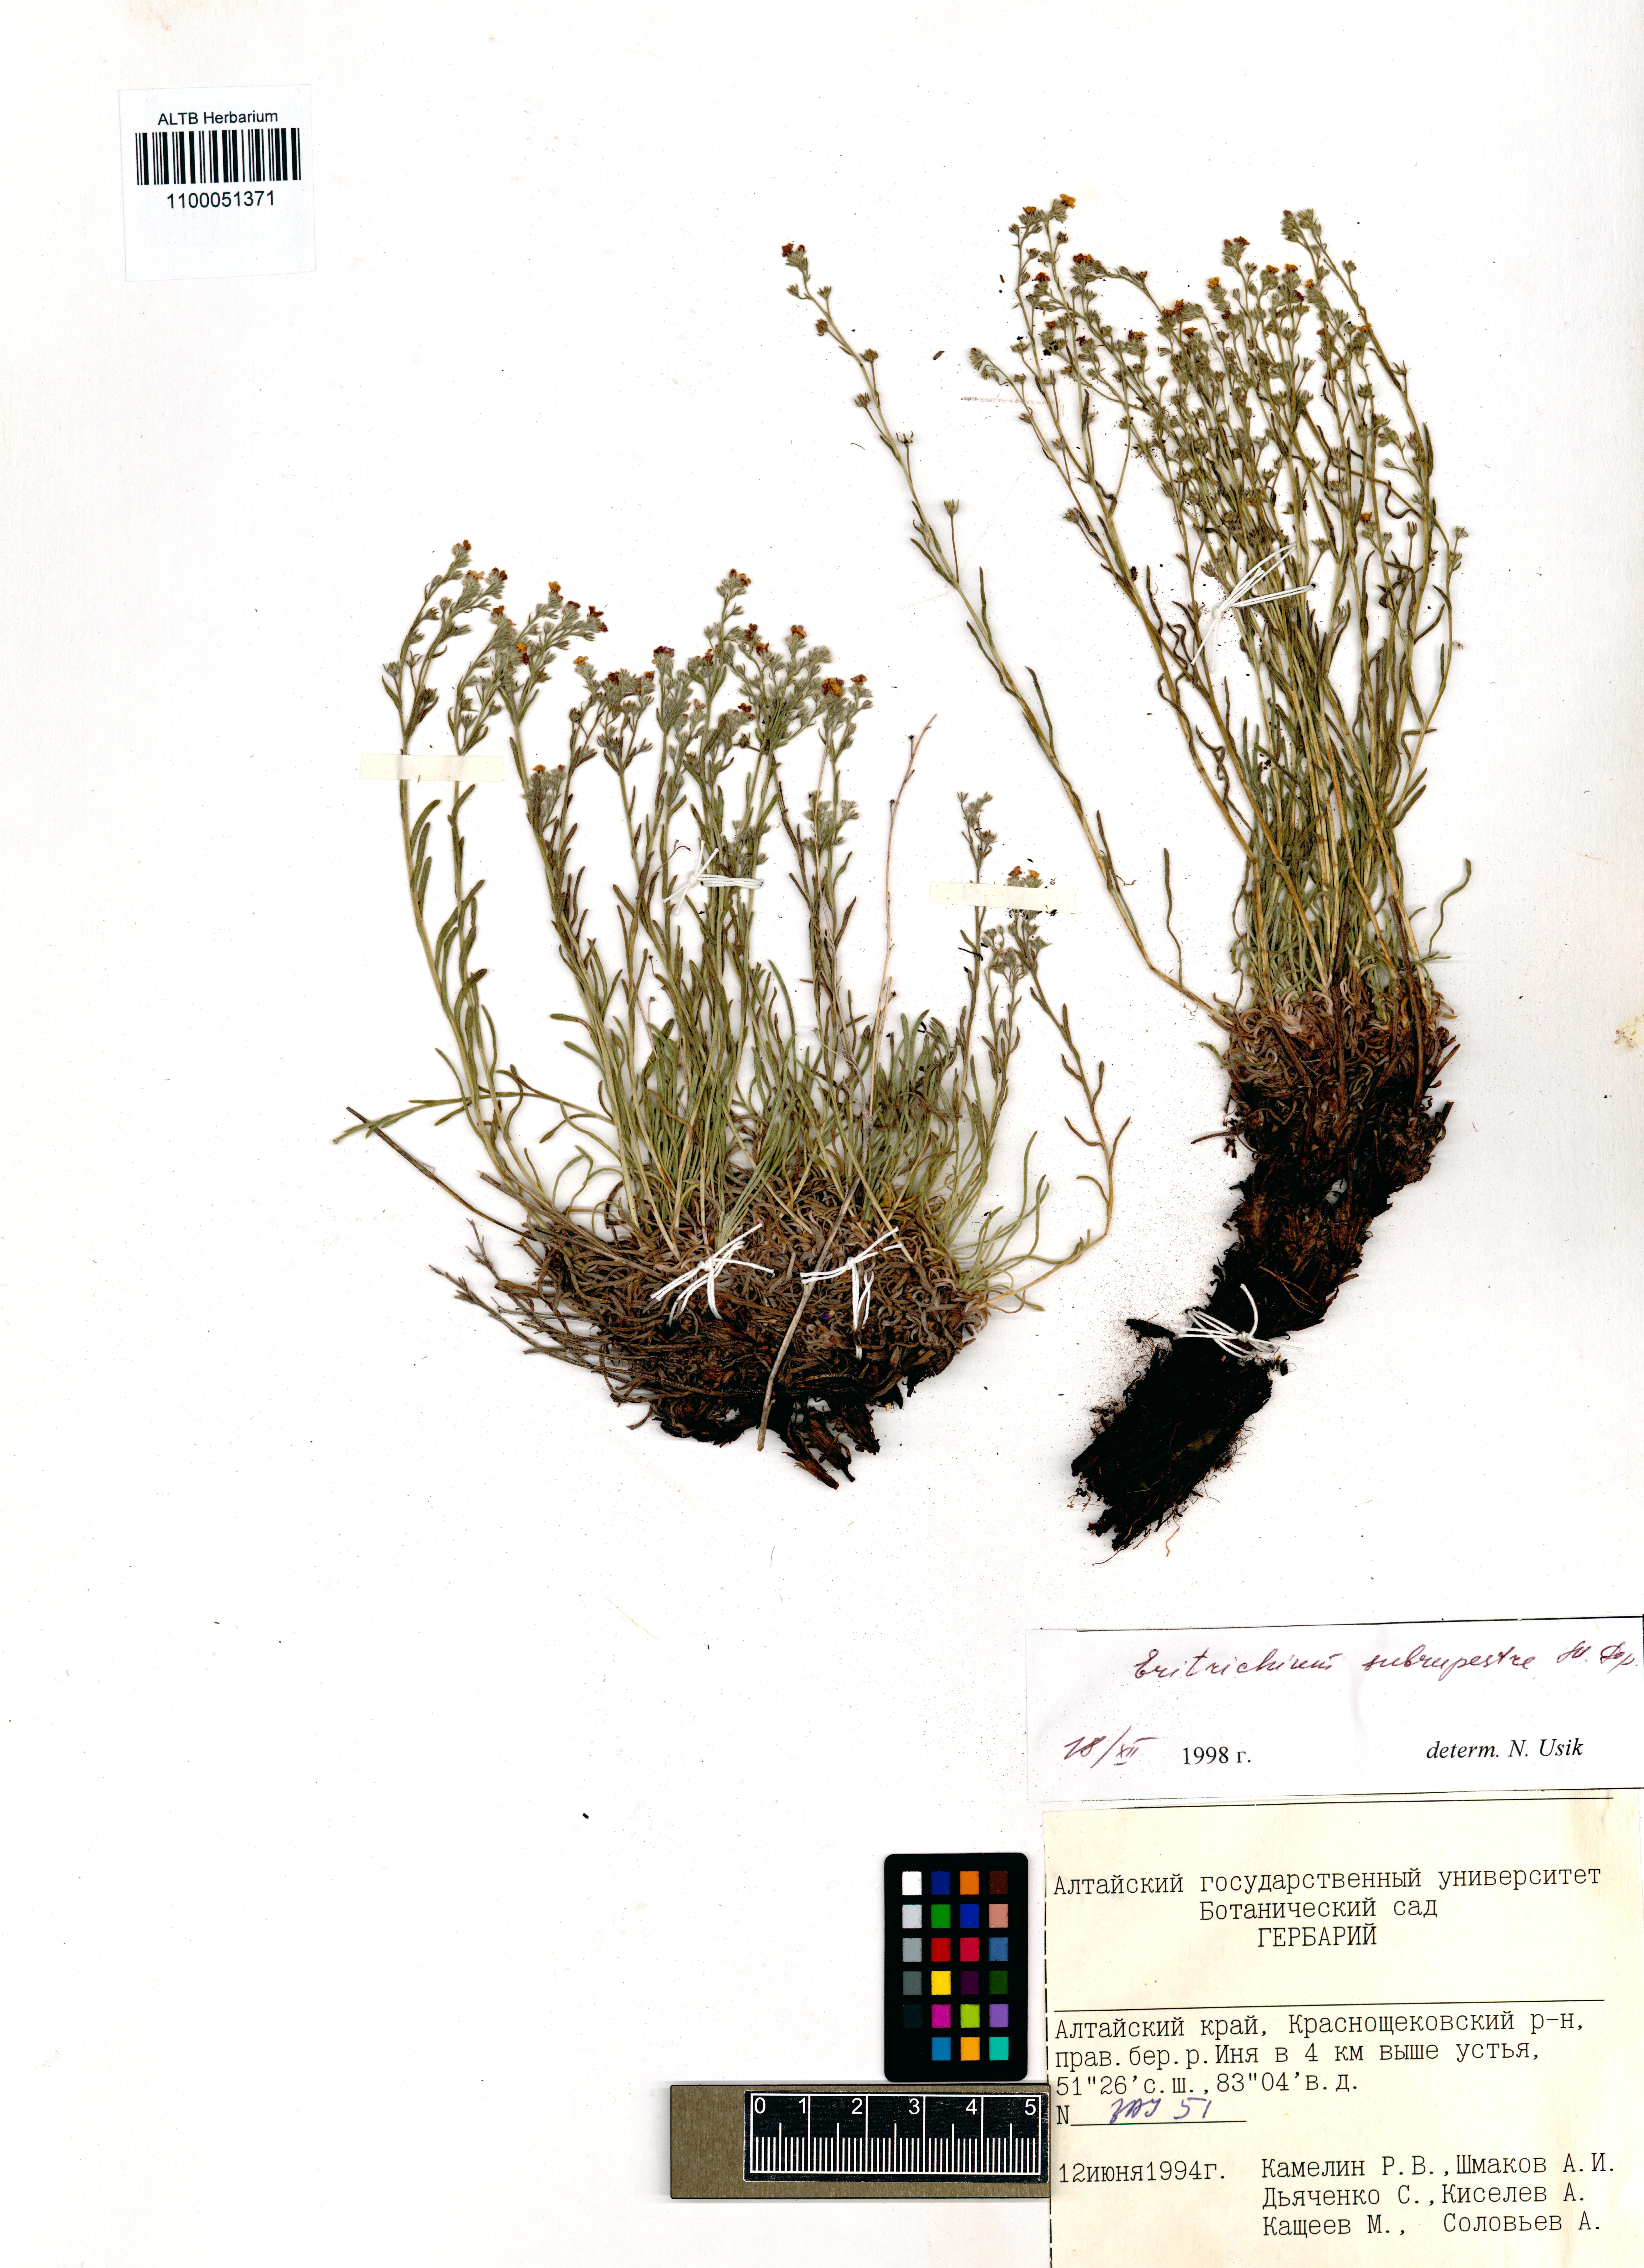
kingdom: Plantae
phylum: Tracheophyta
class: Magnoliopsida
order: Boraginales
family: Boraginaceae
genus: Eritrichium
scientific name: Eritrichium pauciflorum
